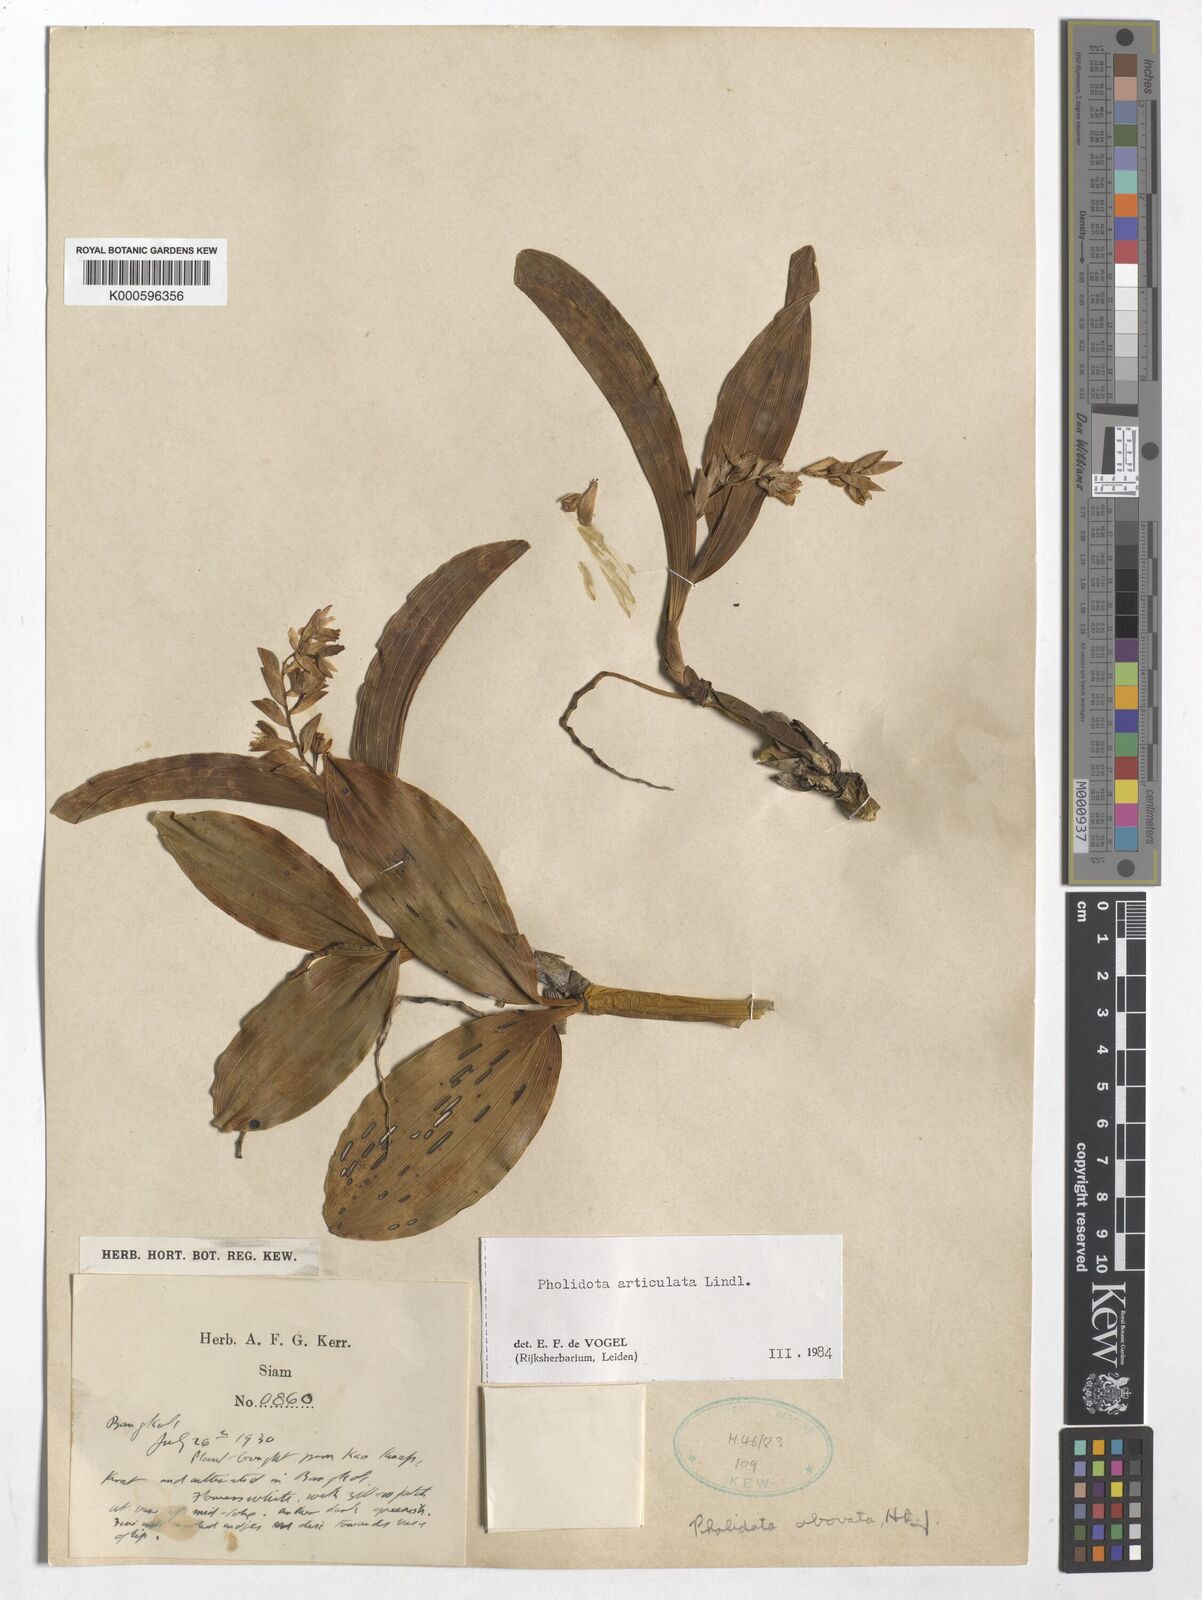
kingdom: Plantae
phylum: Tracheophyta
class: Liliopsida
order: Asparagales
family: Orchidaceae
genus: Coelogyne
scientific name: Coelogyne articulata
